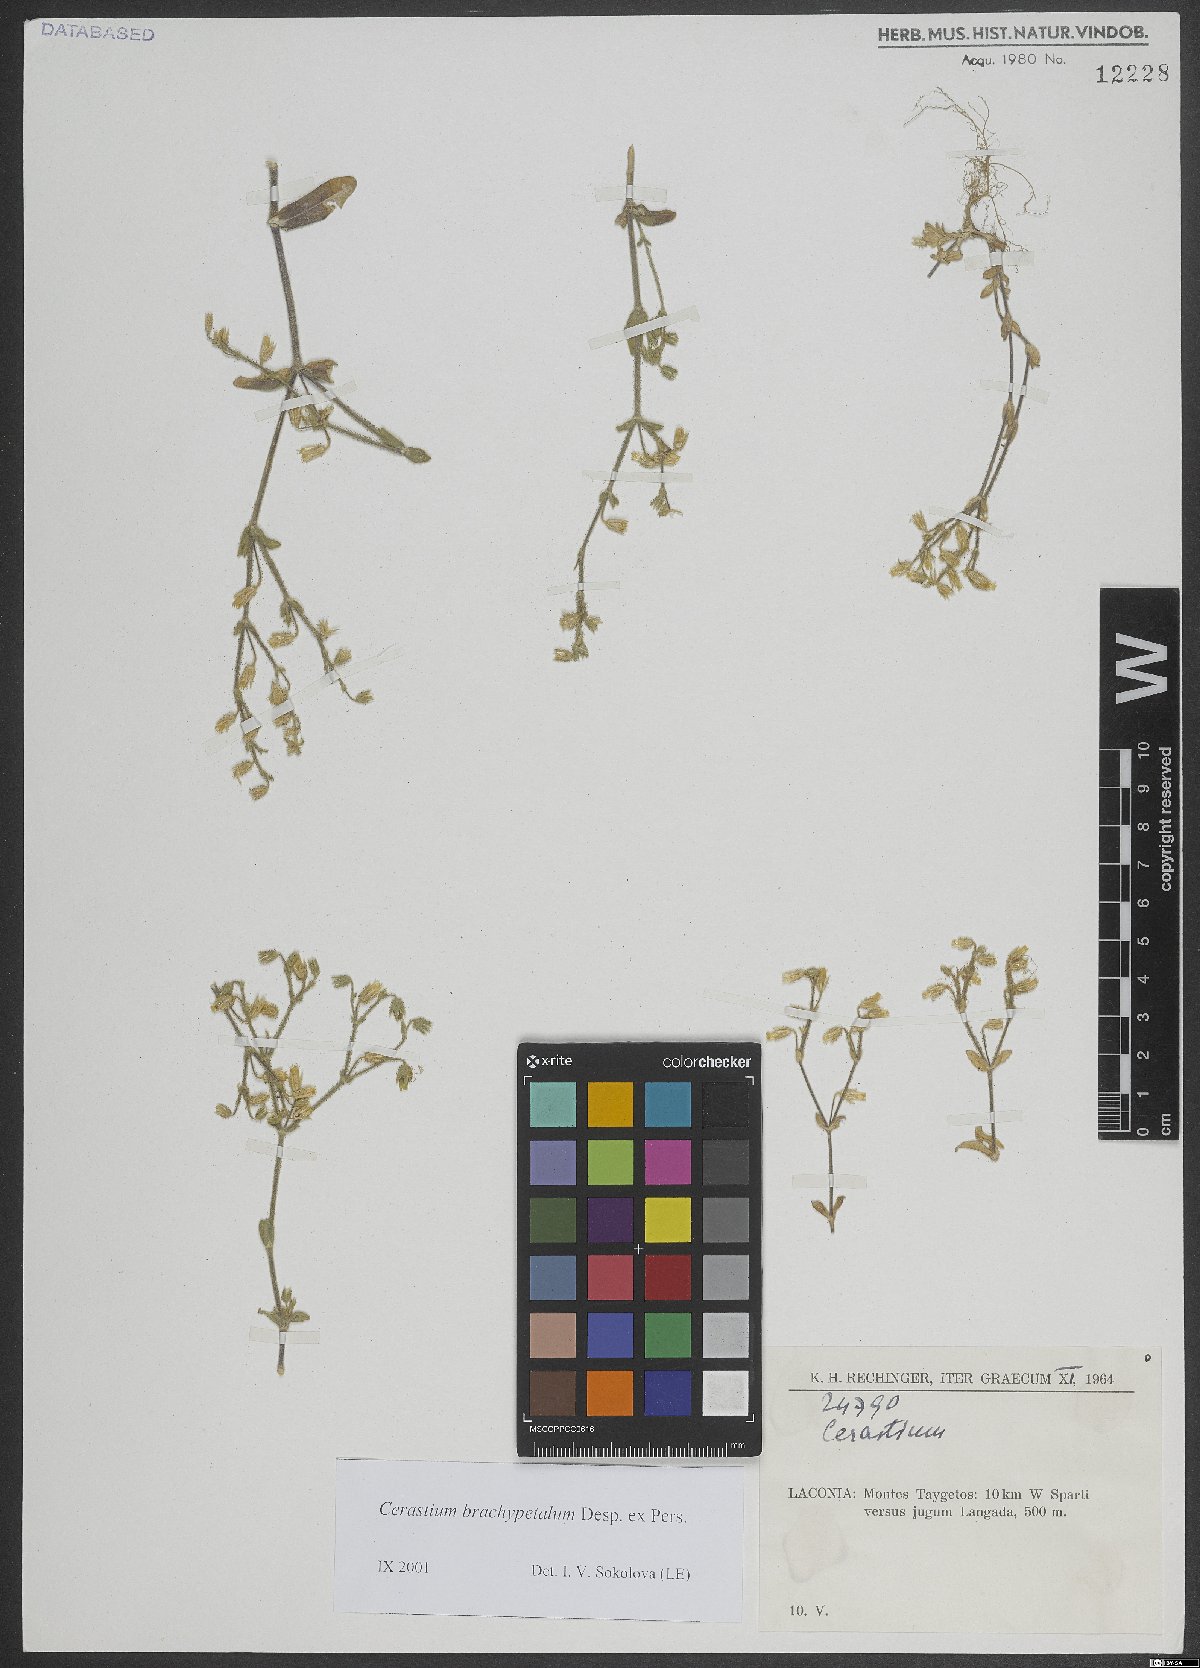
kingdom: Plantae
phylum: Tracheophyta
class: Magnoliopsida
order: Caryophyllales
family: Caryophyllaceae
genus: Cerastium
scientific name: Cerastium brachypetalum
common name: Grey mouse-ear
